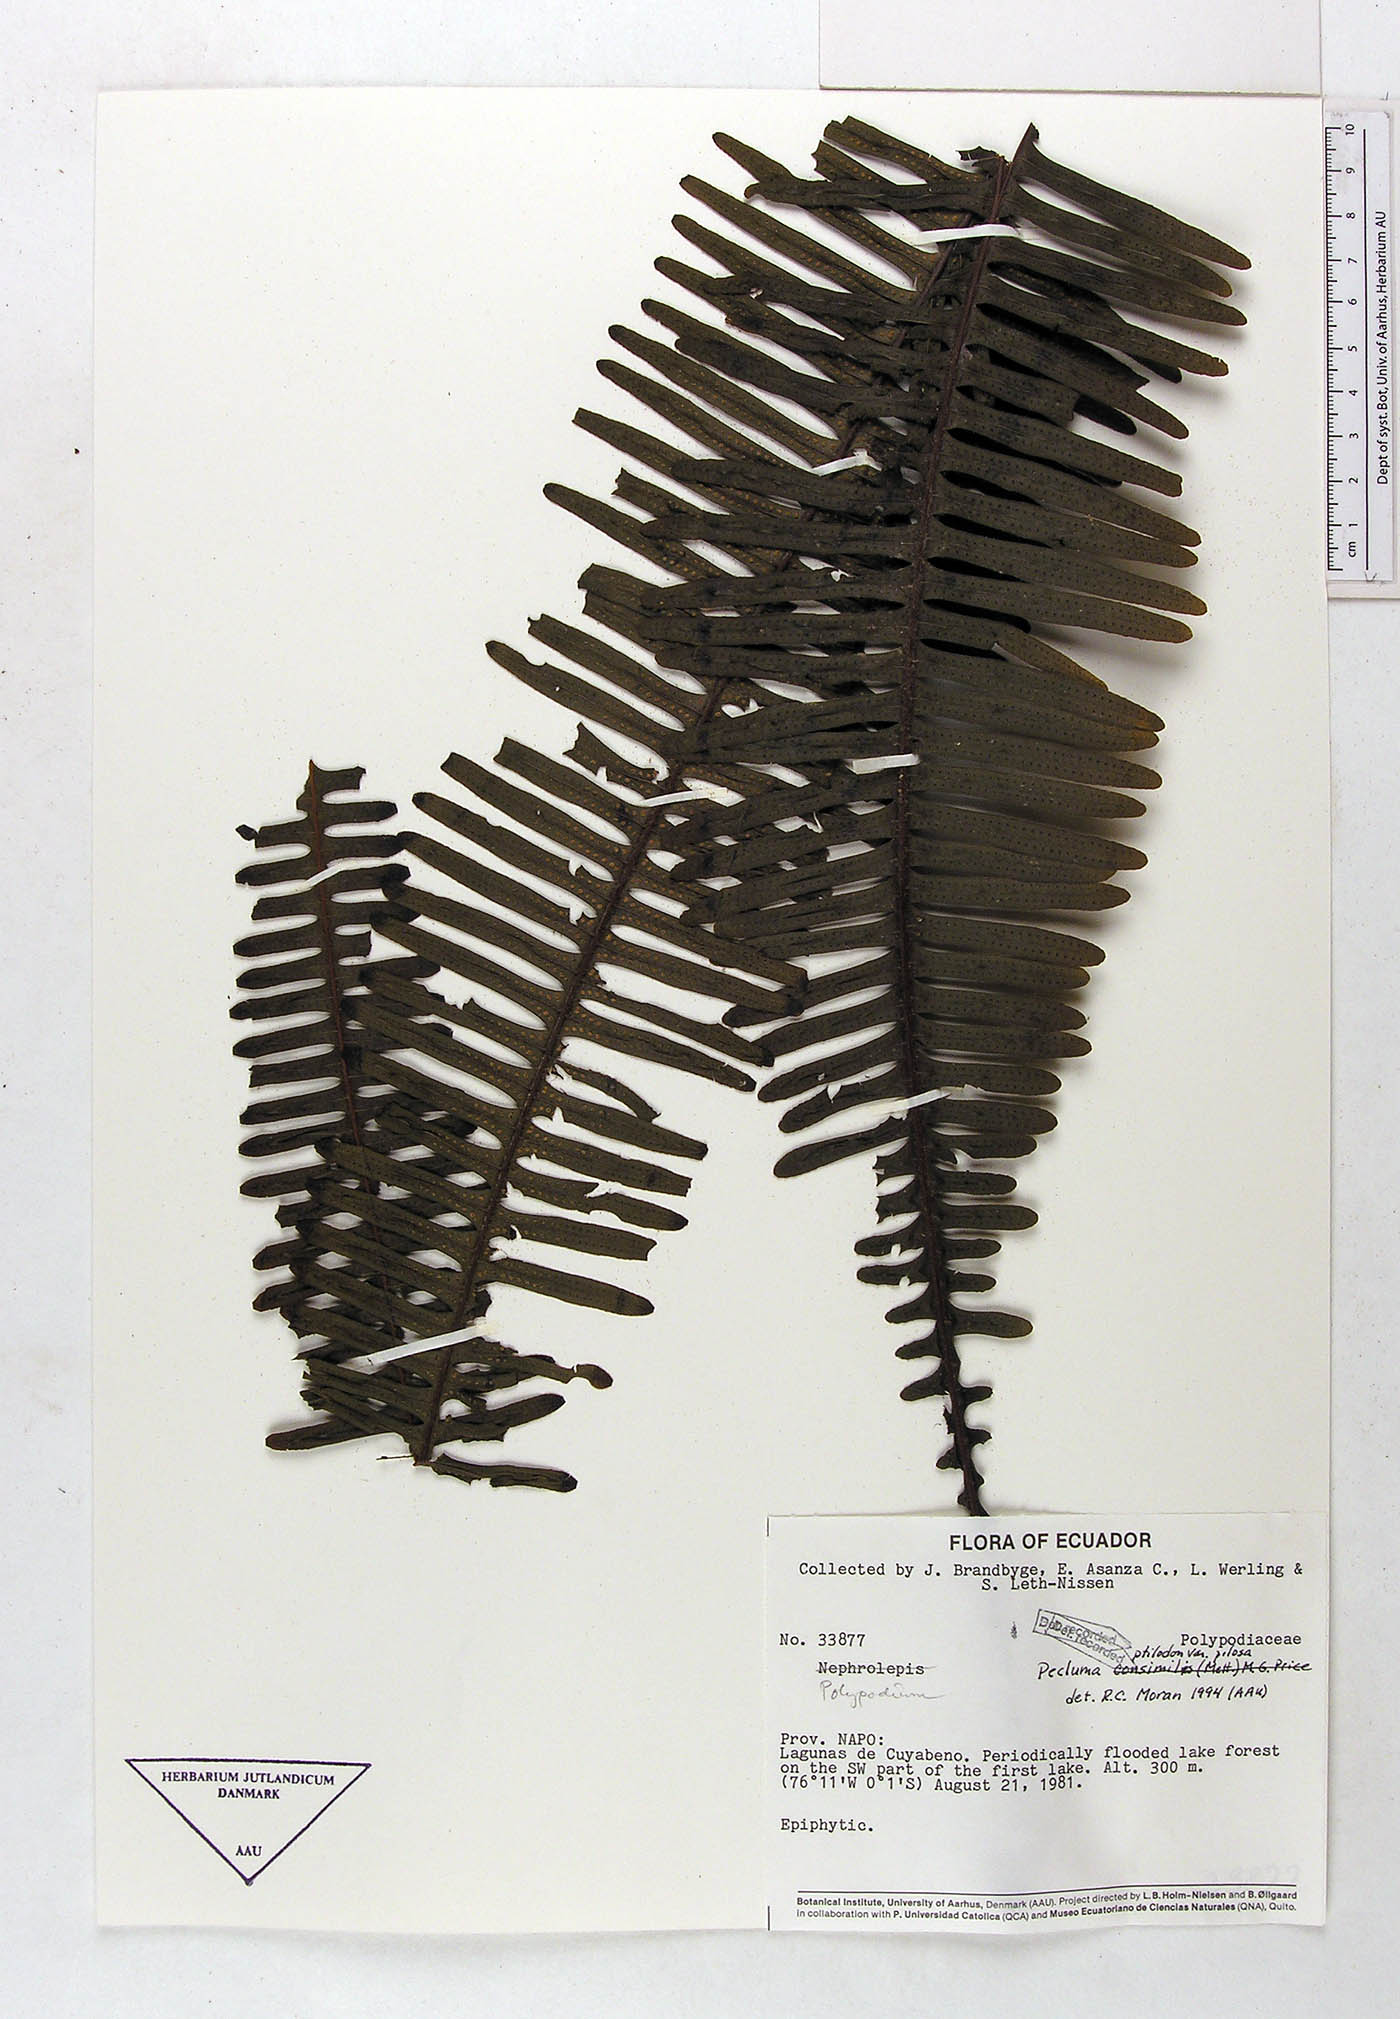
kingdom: Plantae
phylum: Tracheophyta
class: Polypodiopsida
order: Polypodiales
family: Polypodiaceae
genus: Pecluma
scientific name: Pecluma ptilotos
